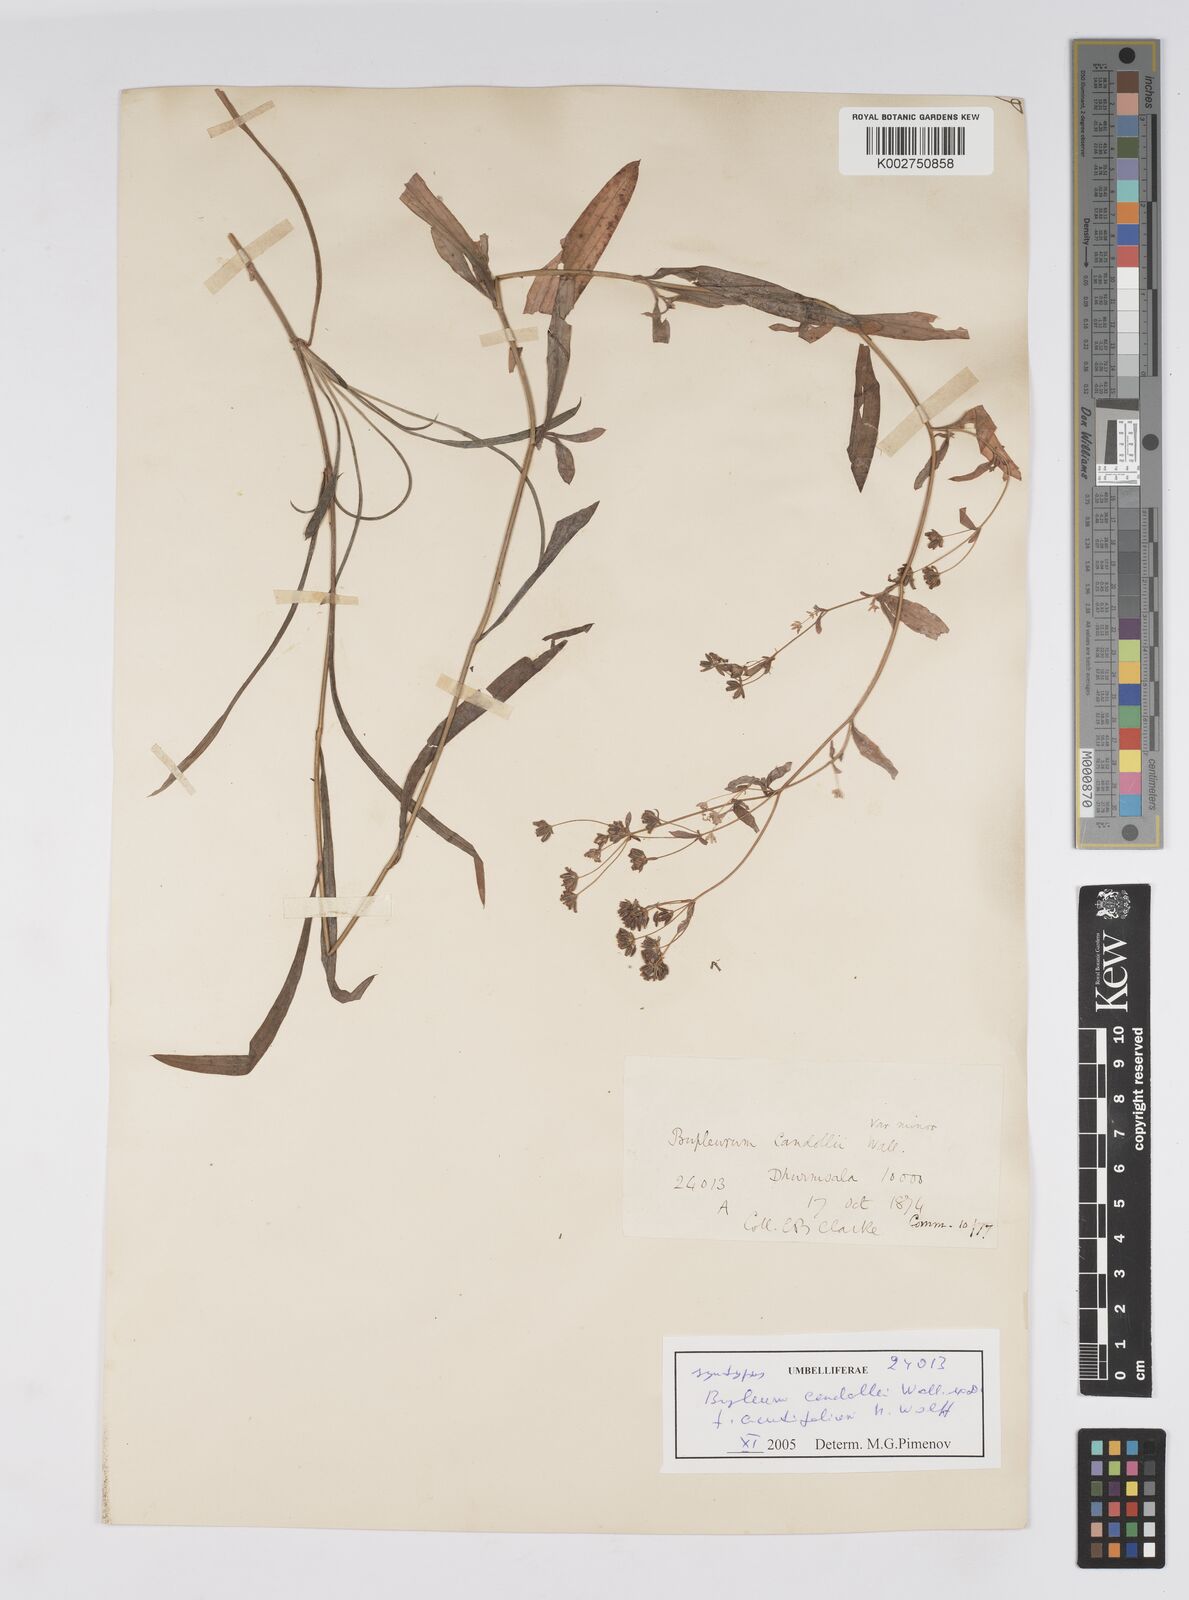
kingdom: Plantae
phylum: Tracheophyta
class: Magnoliopsida
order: Apiales
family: Apiaceae
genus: Bupleurum
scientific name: Bupleurum candollei
